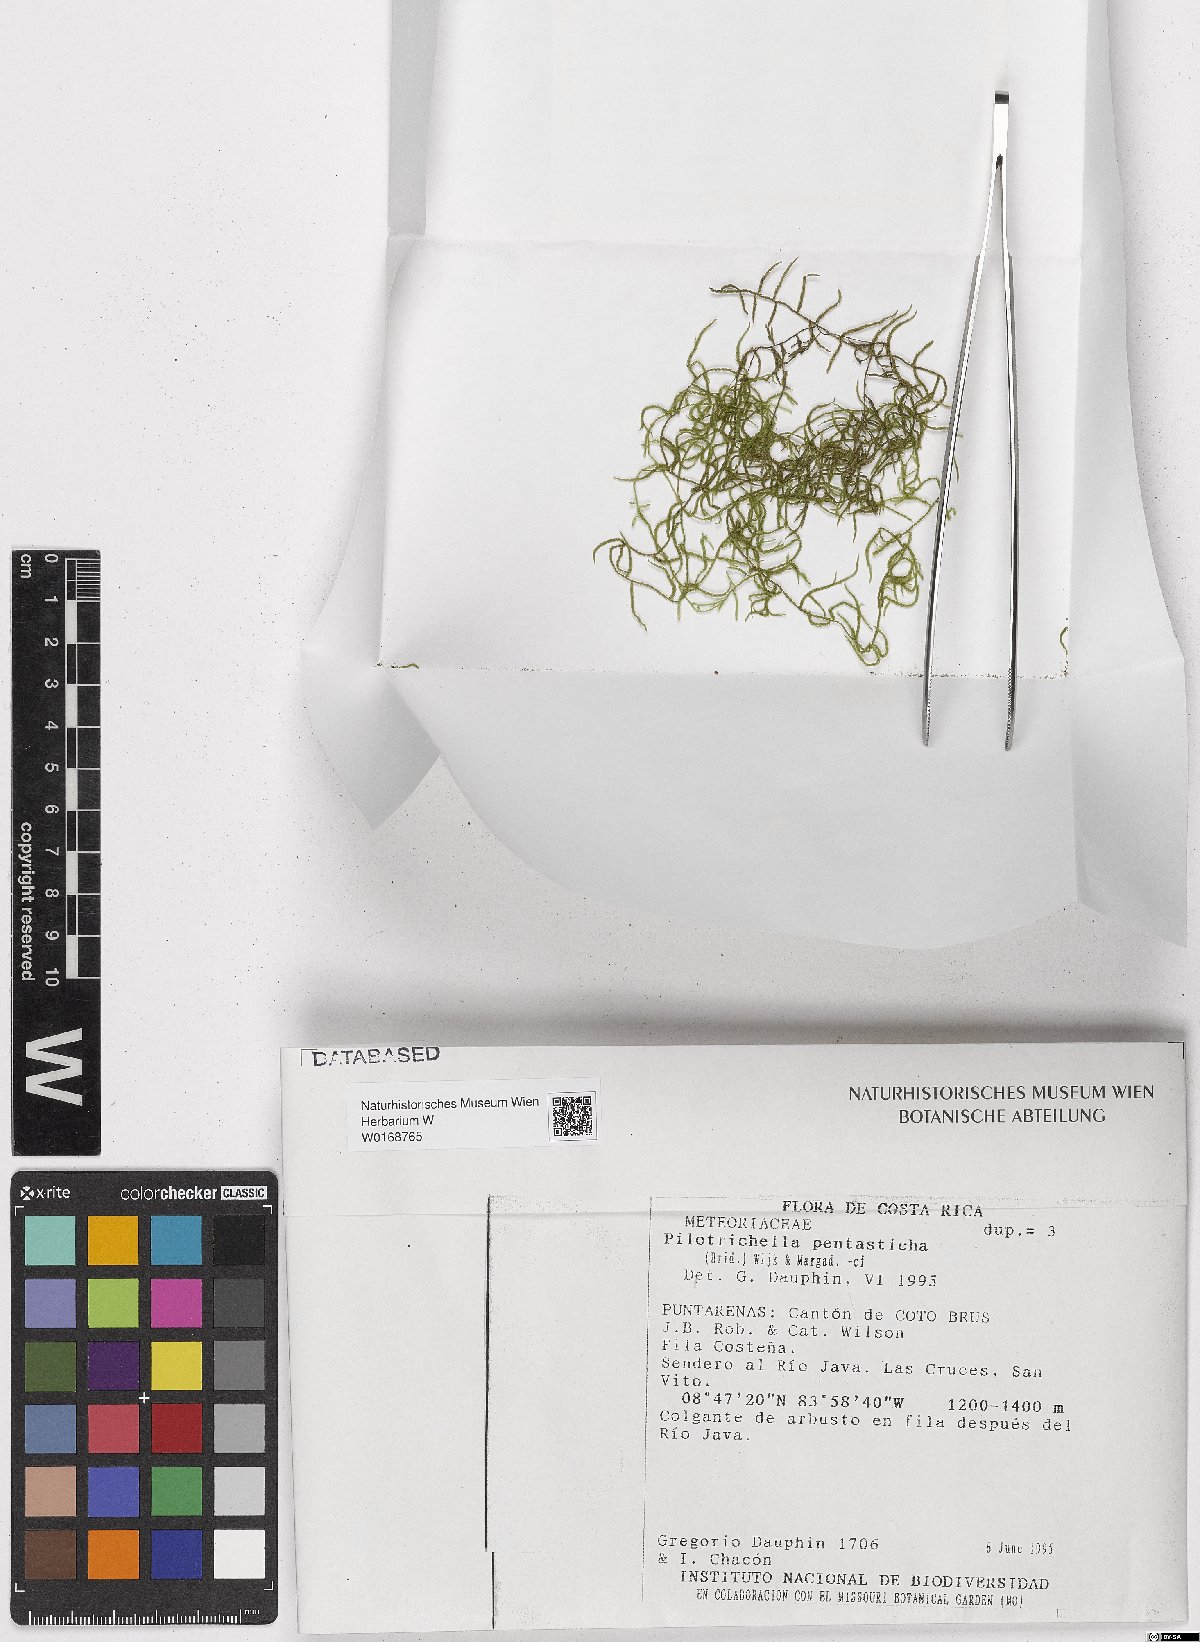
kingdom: Plantae
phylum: Bryophyta
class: Bryopsida
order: Hypnales
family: Pterobryaceae
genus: Orthostichidium
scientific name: Orthostichidium pentastichum
